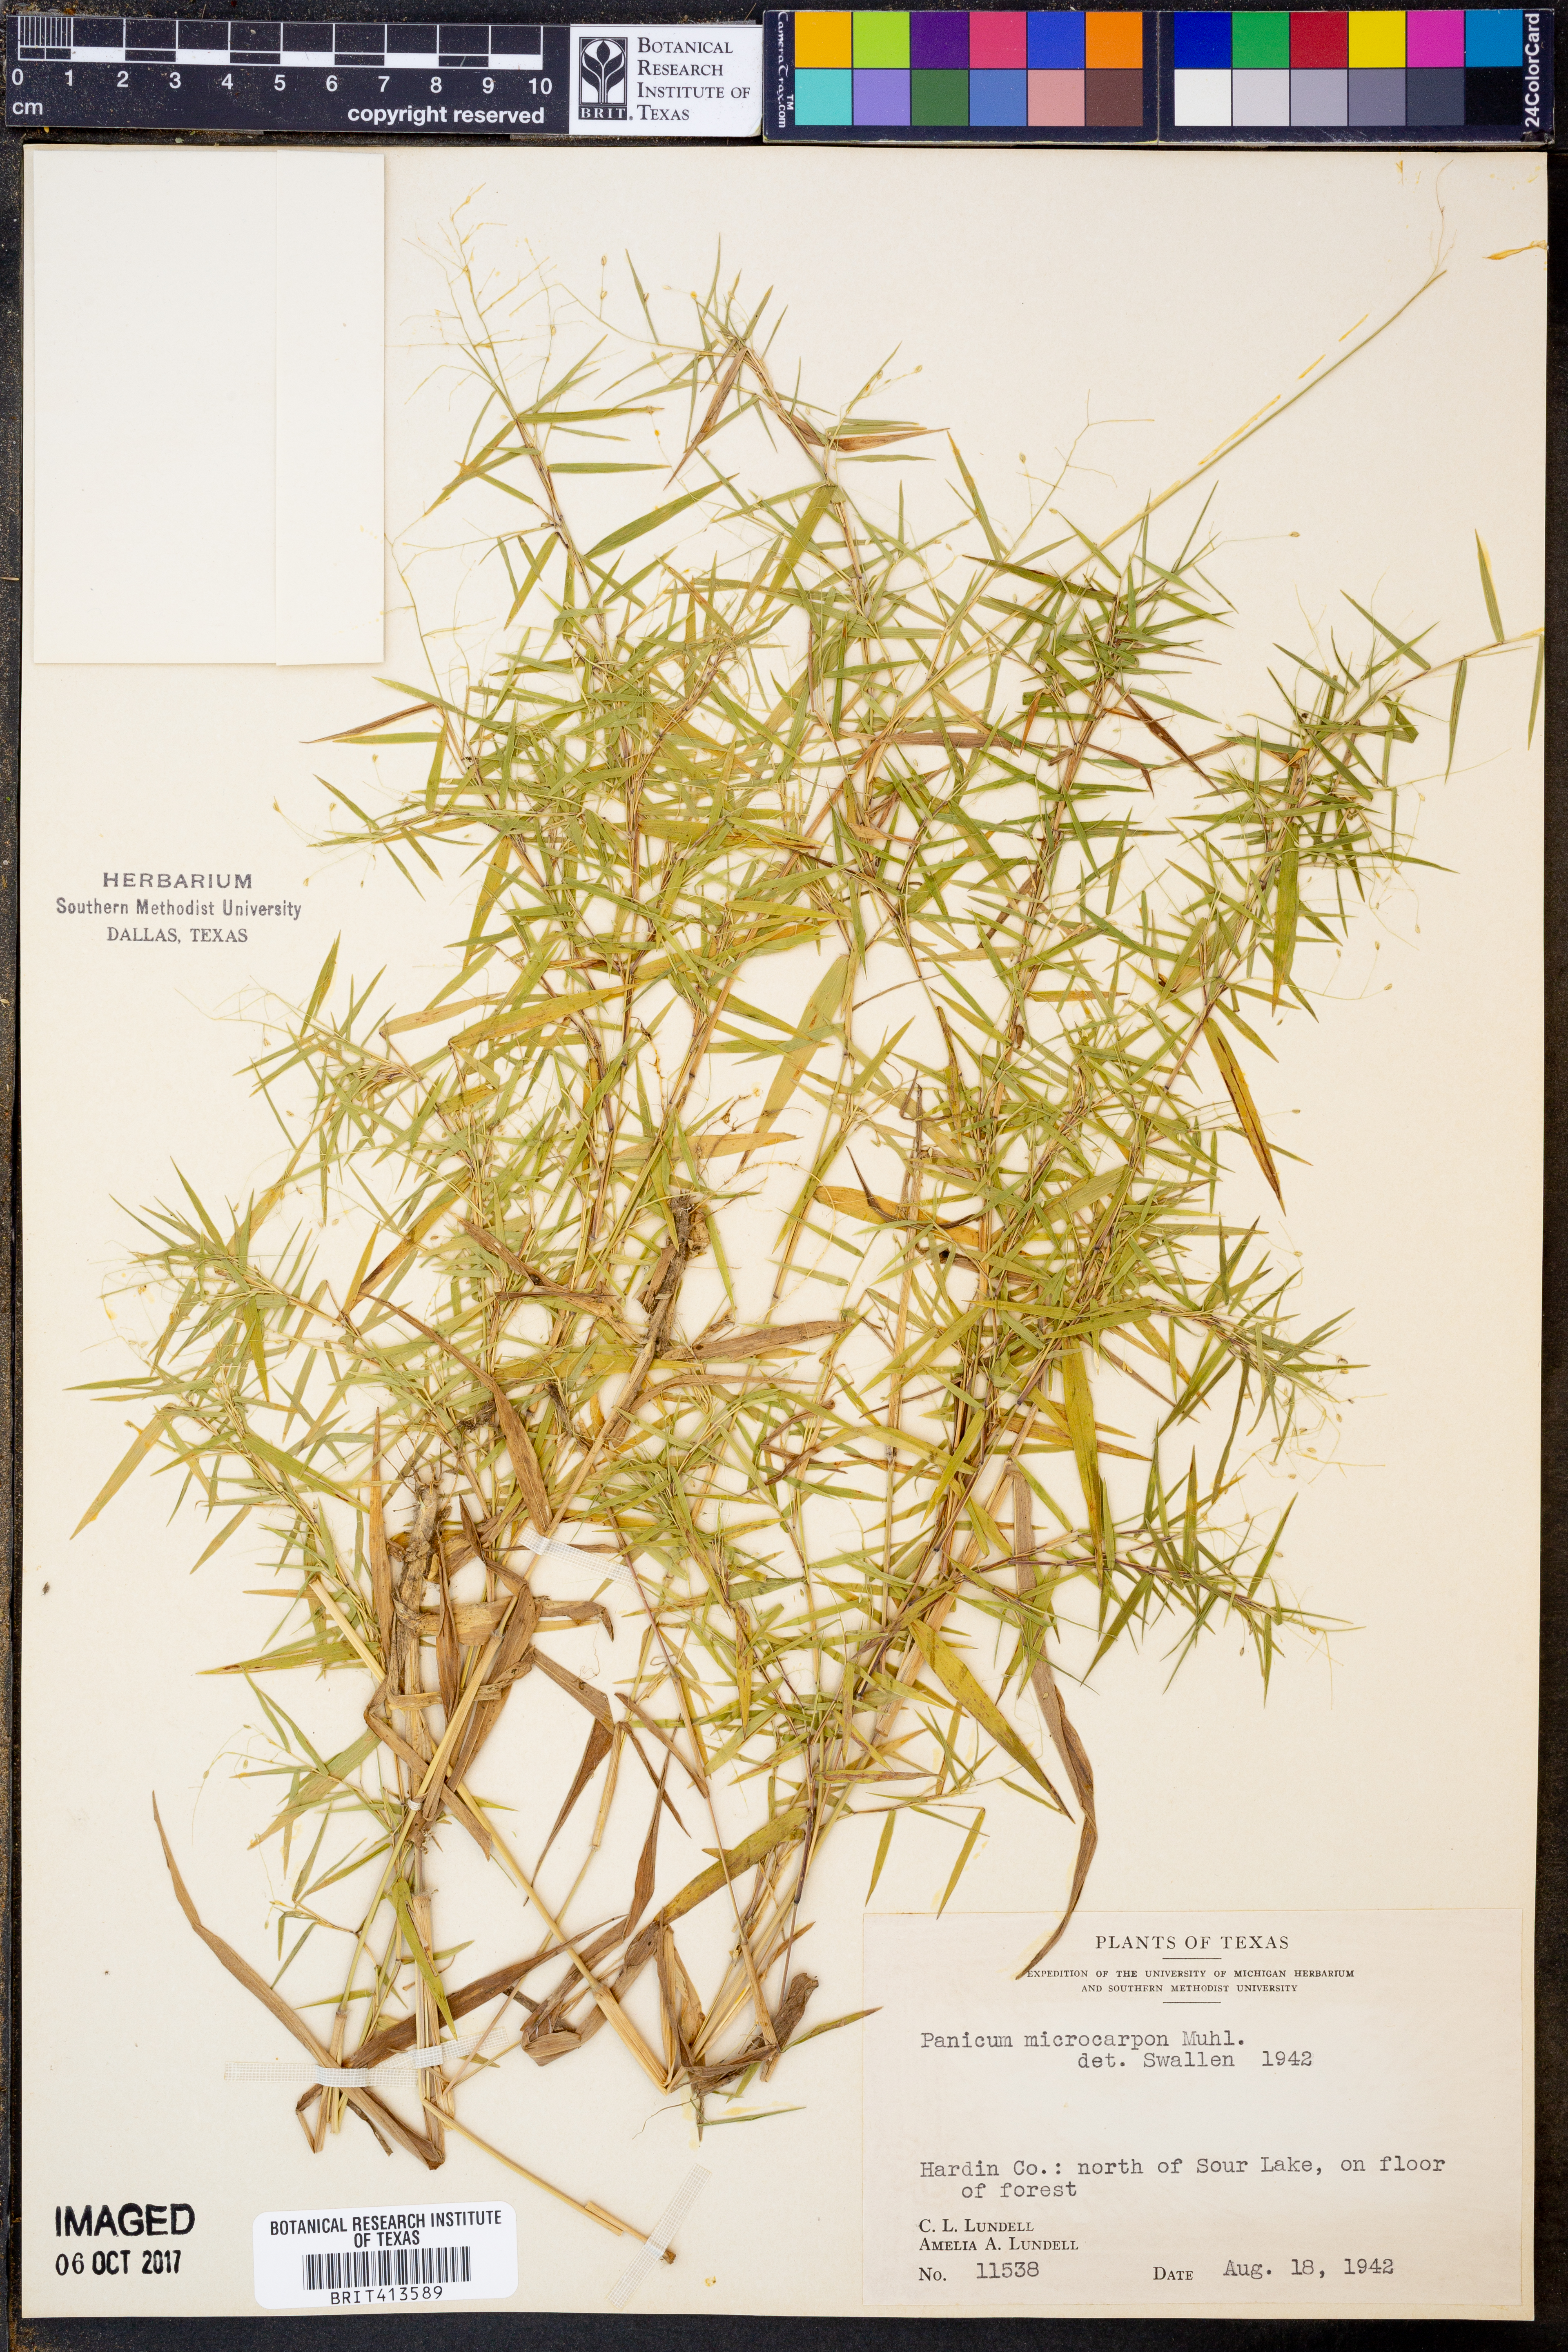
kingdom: Plantae
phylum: Tracheophyta
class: Liliopsida
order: Poales
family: Poaceae
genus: Dichanthelium
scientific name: Dichanthelium polyanthes
